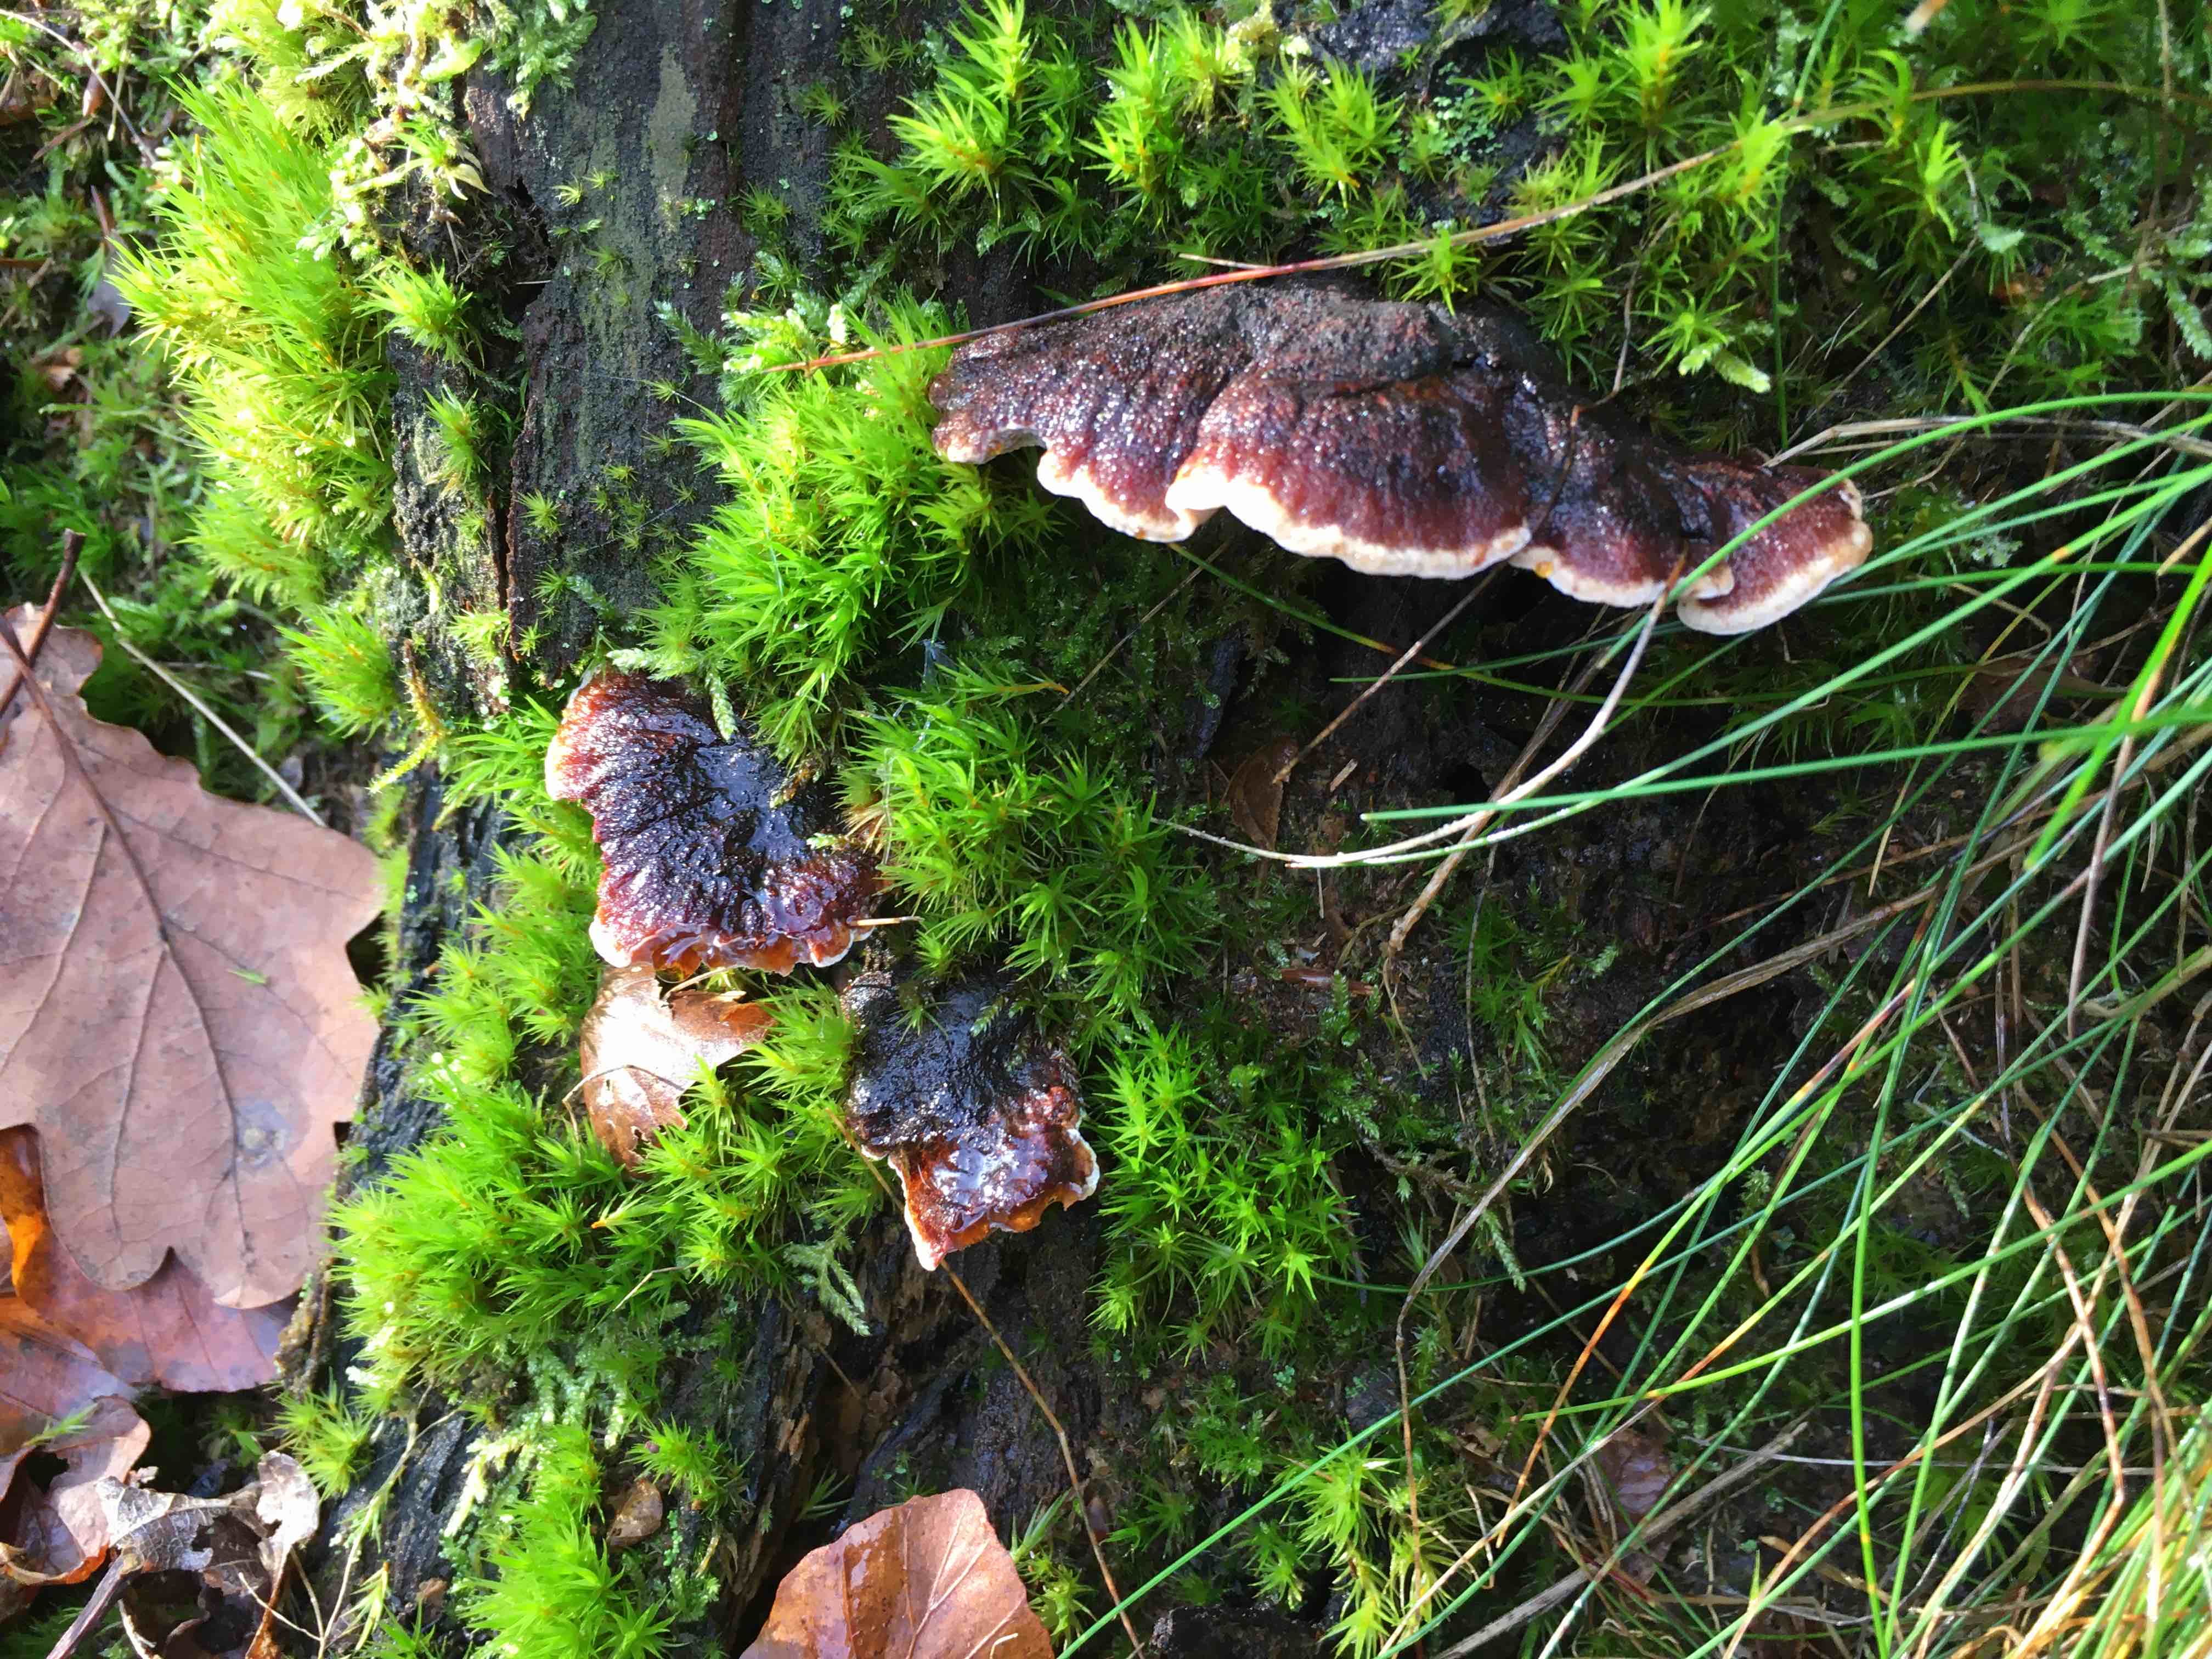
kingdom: Fungi
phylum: Basidiomycota
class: Agaricomycetes
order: Polyporales
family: Ischnodermataceae
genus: Ischnoderma
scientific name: Ischnoderma benzoinum
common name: gran-tjæreporesvamp
